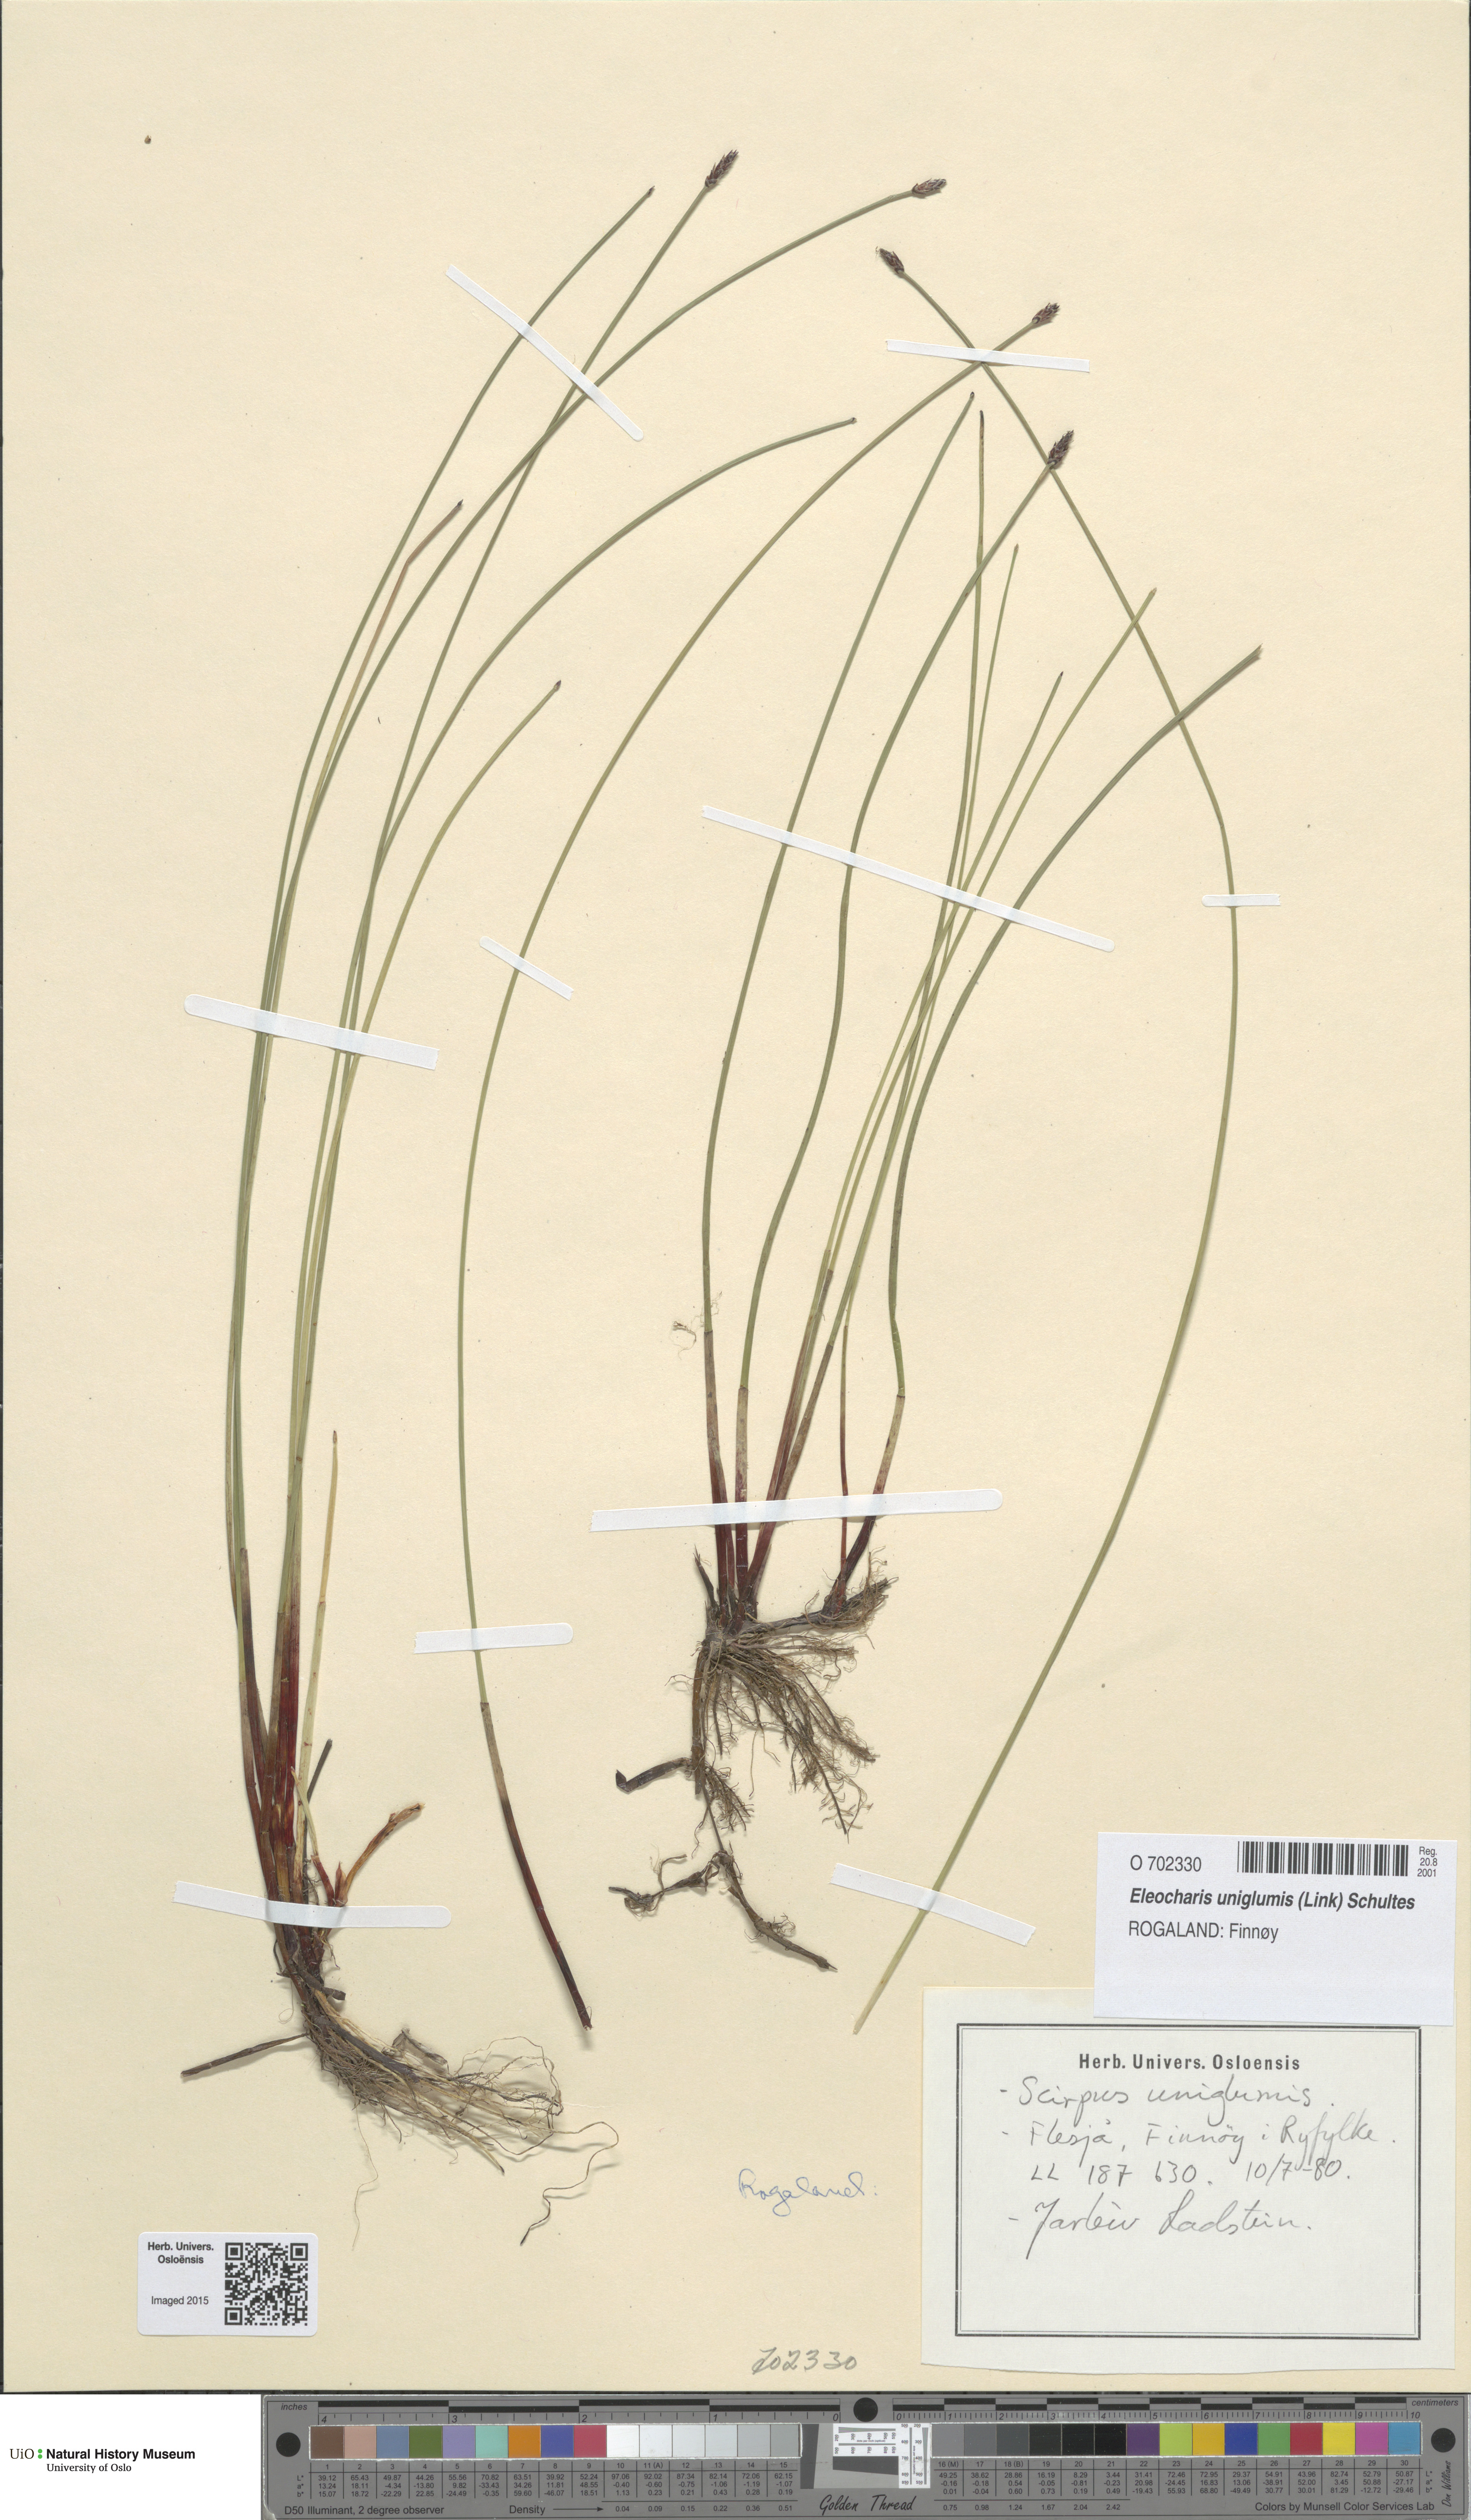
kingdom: Plantae
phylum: Tracheophyta
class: Liliopsida
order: Poales
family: Cyperaceae
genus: Eleocharis
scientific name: Eleocharis uniglumis
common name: Slender spike-rush
